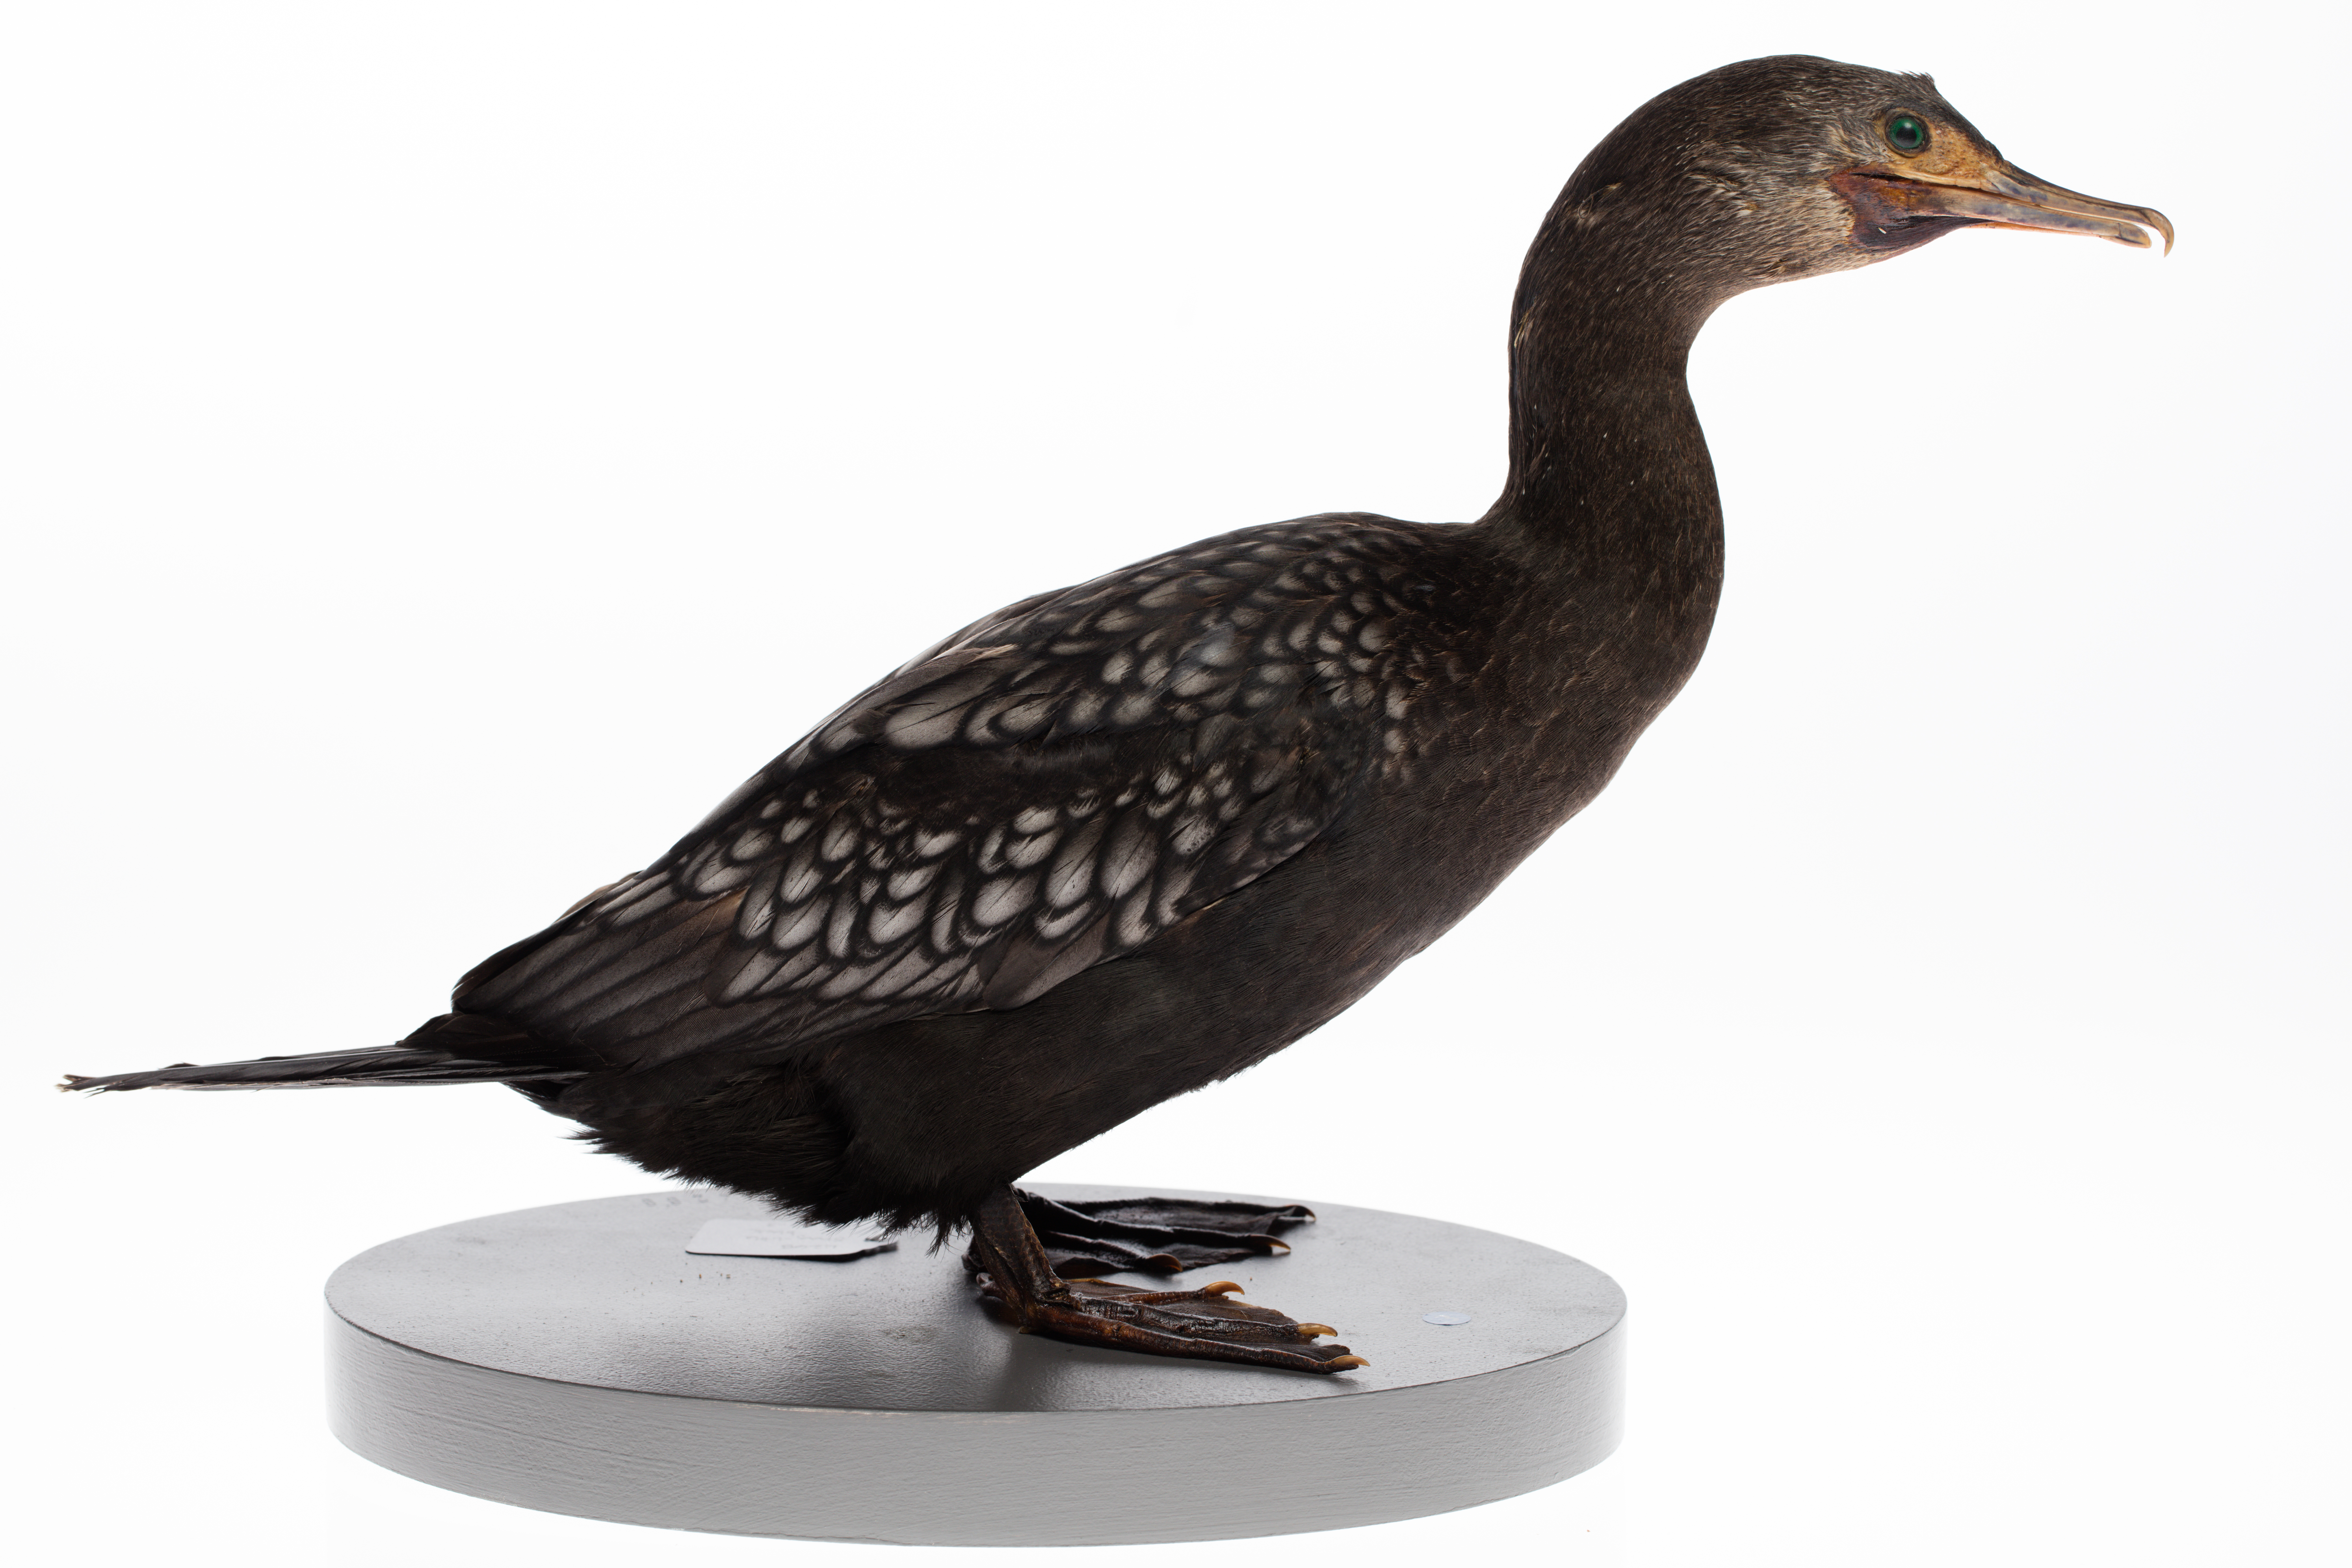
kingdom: Animalia
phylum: Chordata
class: Aves
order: Suliformes
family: Phalacrocoracidae
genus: Phalacrocorax
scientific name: Phalacrocorax sulcirostris
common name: Little black cormorant
